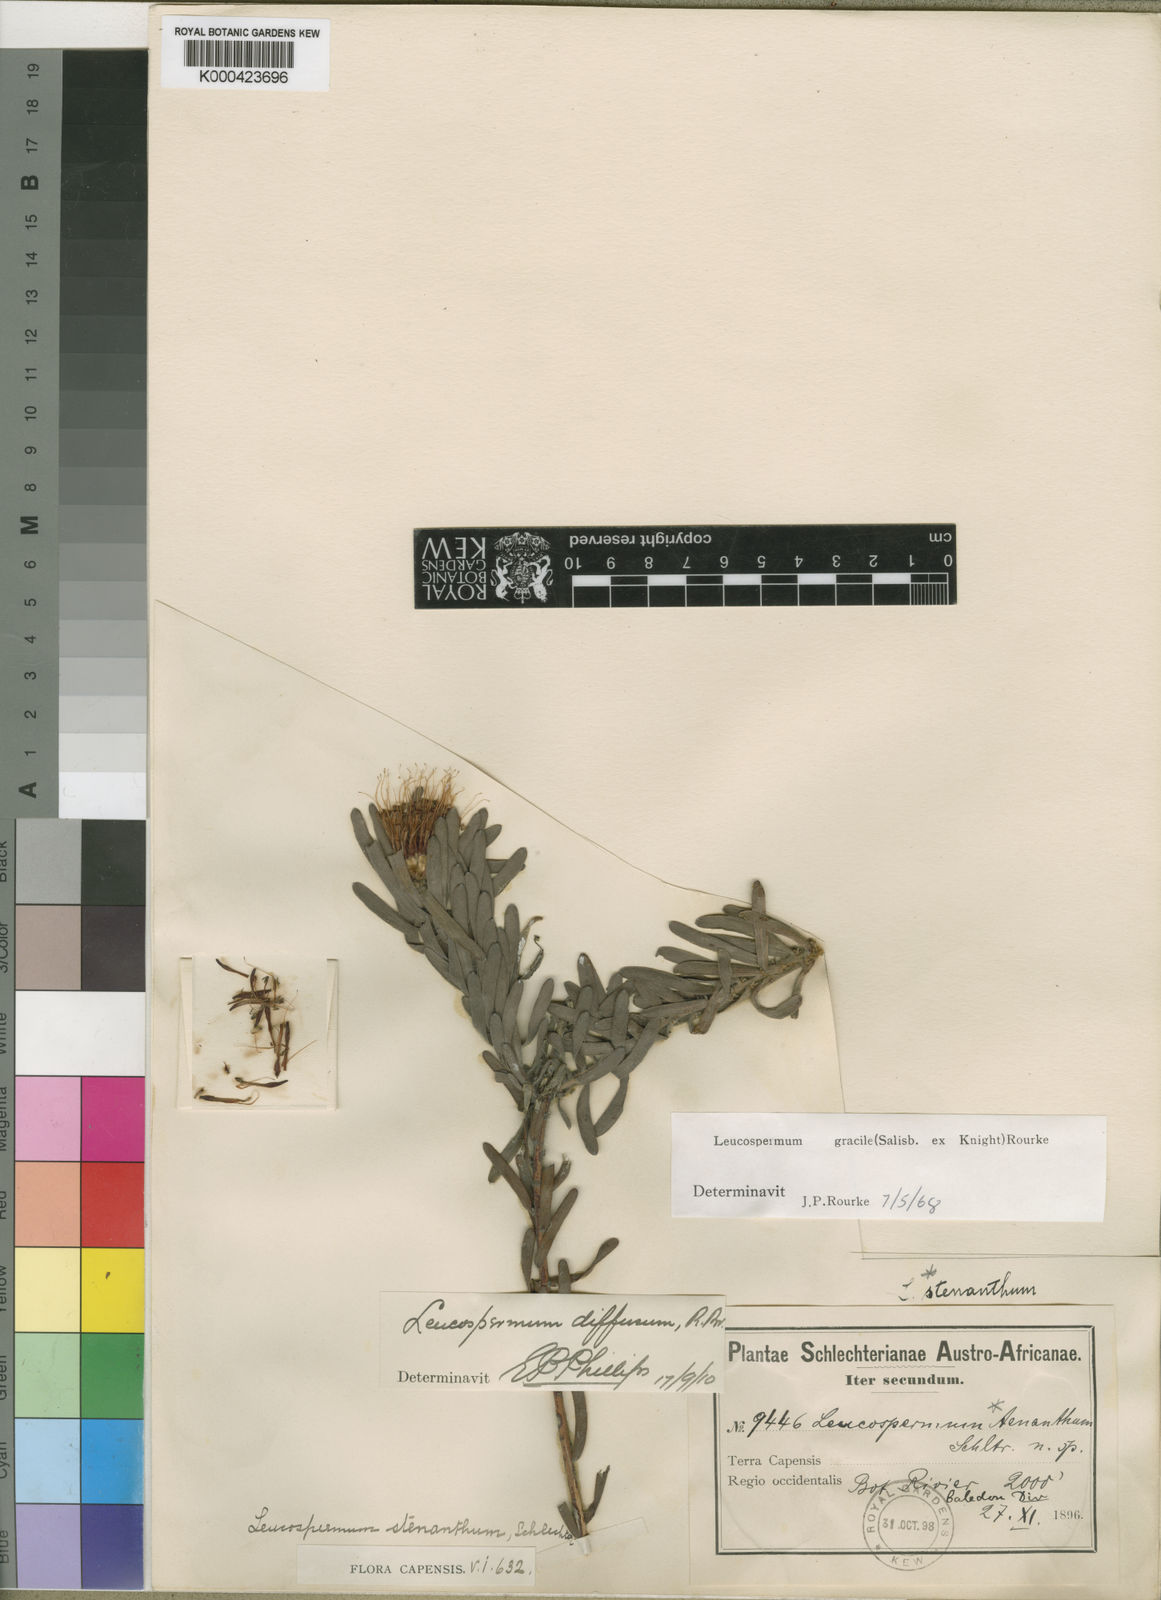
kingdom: Plantae
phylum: Tracheophyta
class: Magnoliopsida
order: Proteales
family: Proteaceae
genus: Leucospermum
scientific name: Leucospermum gracile
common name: Hermanus pincushion
